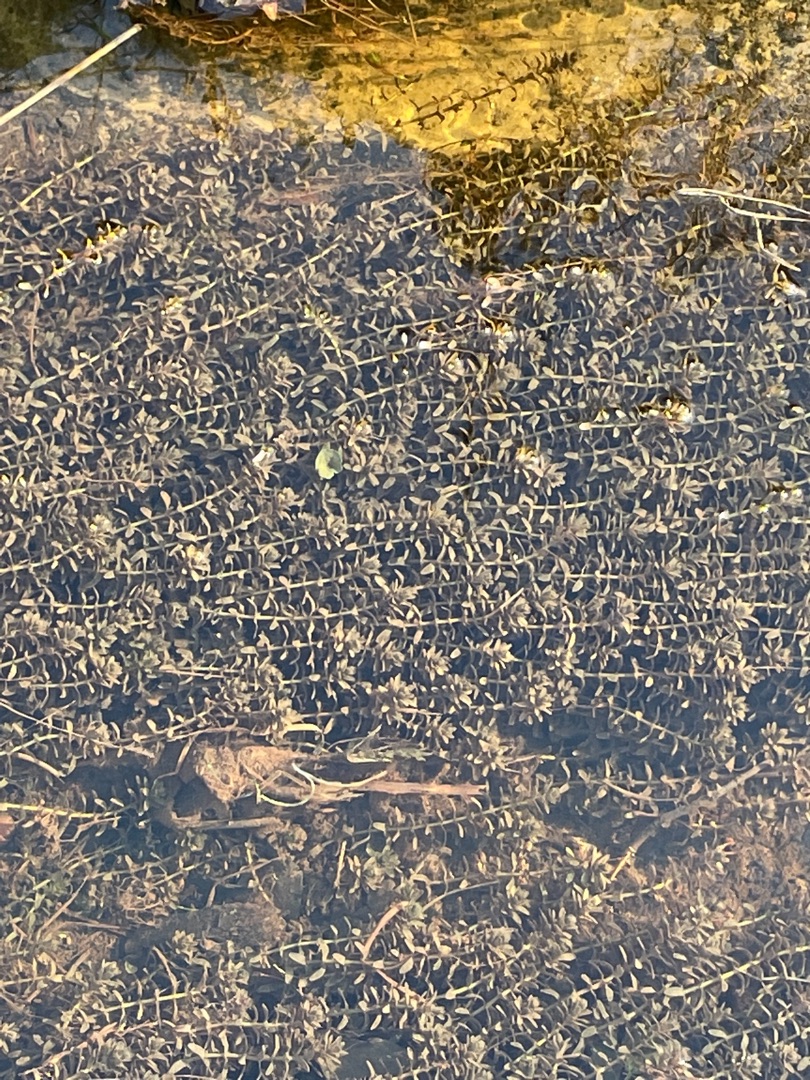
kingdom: Plantae
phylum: Tracheophyta
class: Liliopsida
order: Alismatales
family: Hydrocharitaceae
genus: Elodea
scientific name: Elodea canadensis
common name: Vandpest
